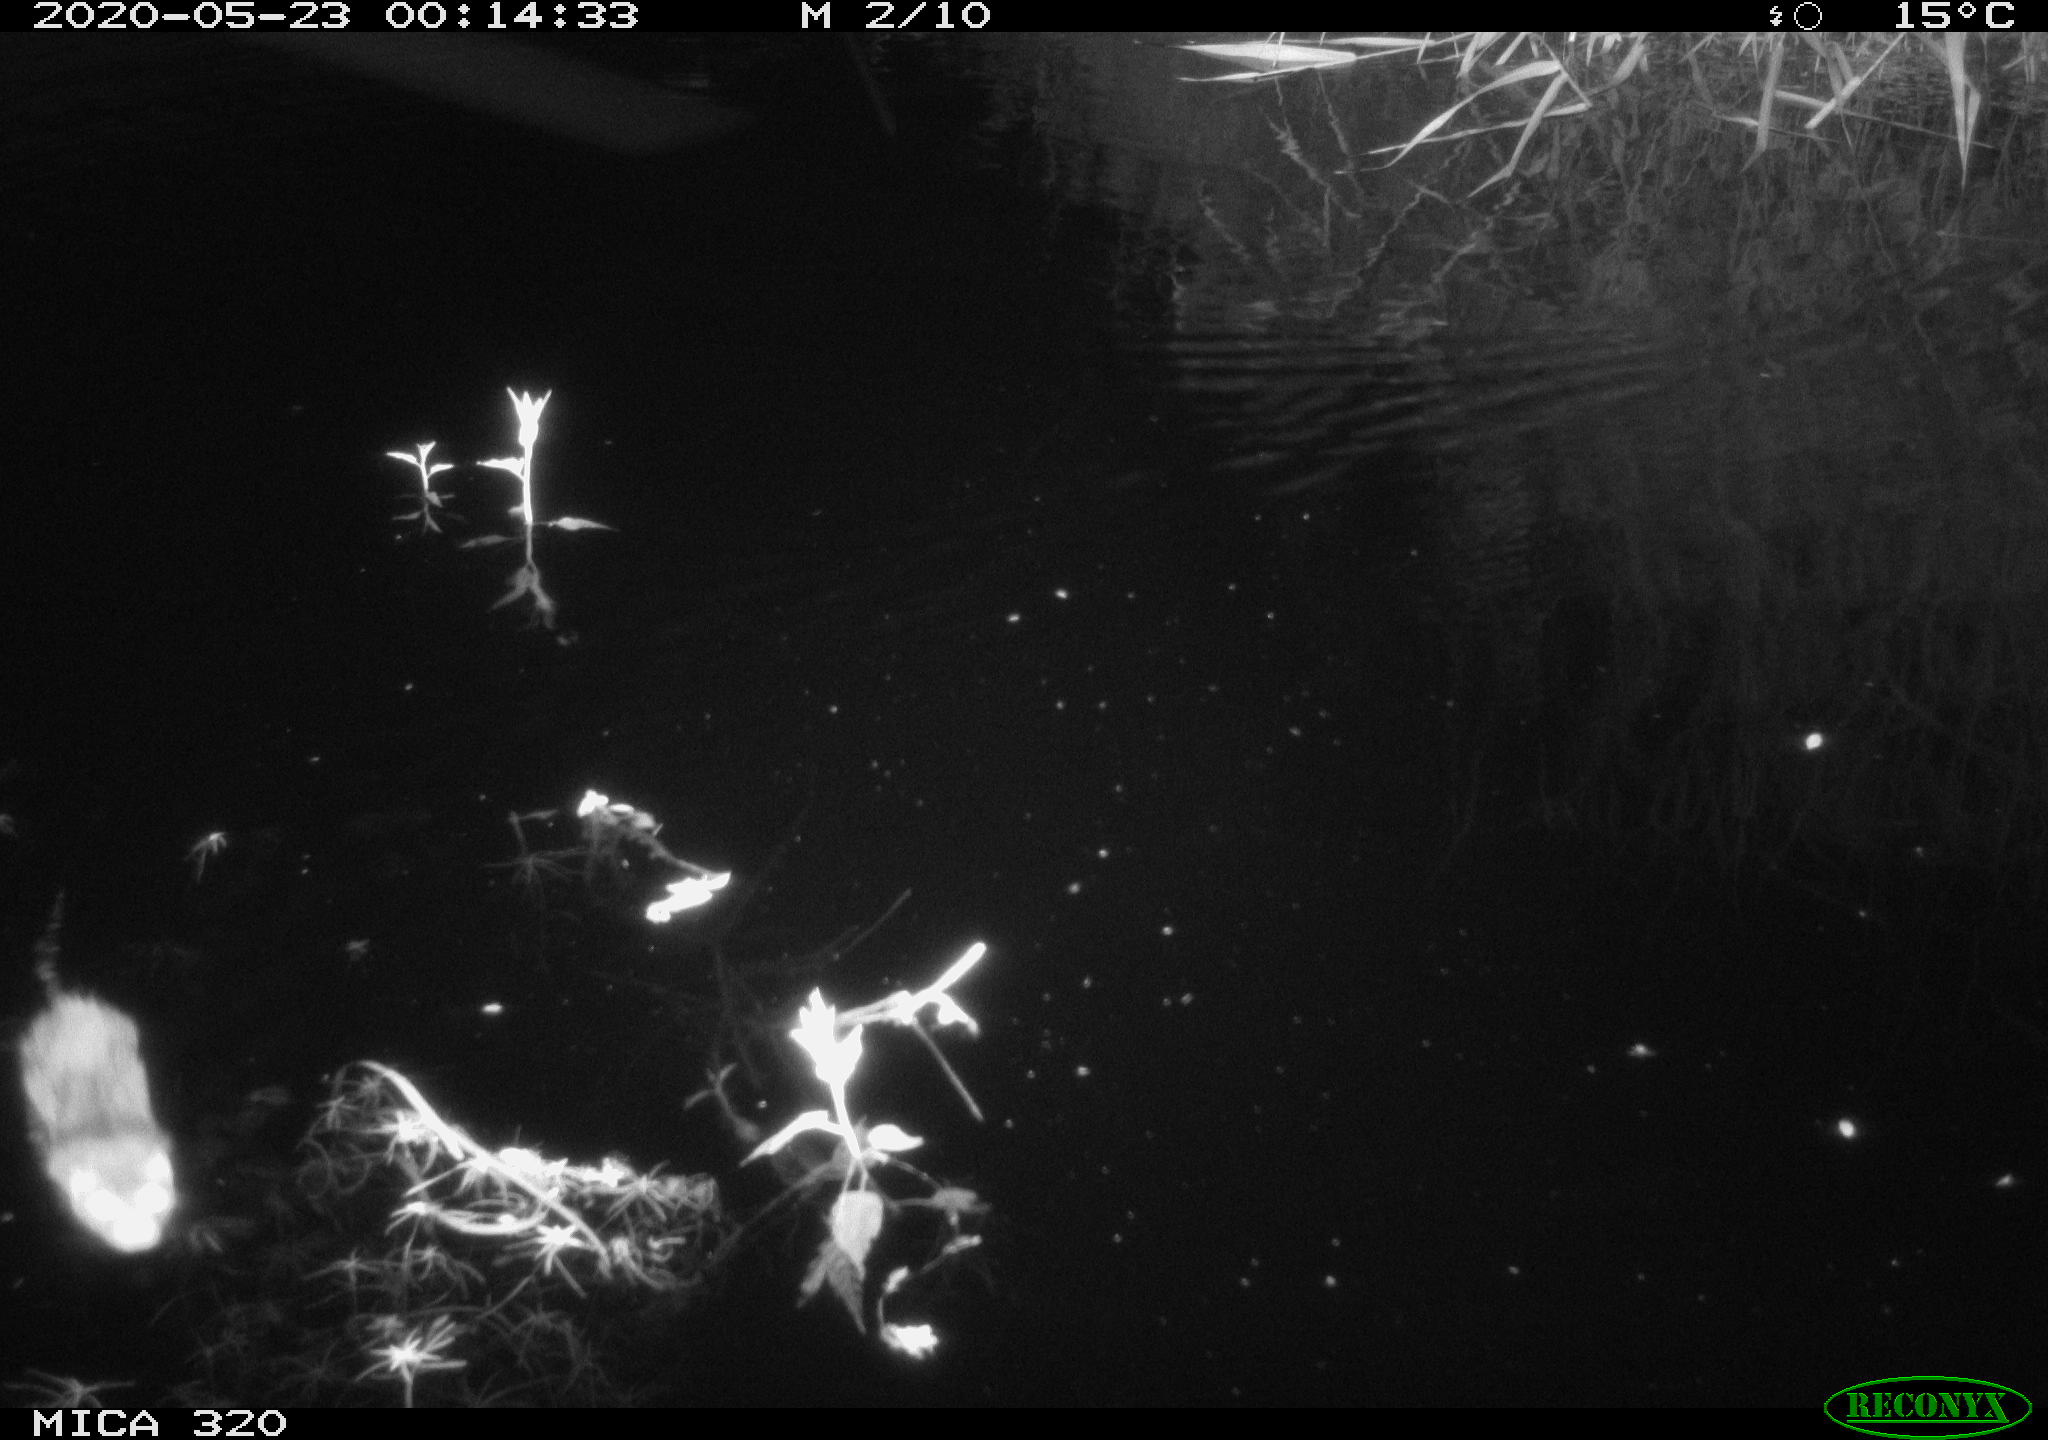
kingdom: Animalia
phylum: Chordata
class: Mammalia
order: Rodentia
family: Muridae
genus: Rattus
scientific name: Rattus norvegicus
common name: Brown rat
